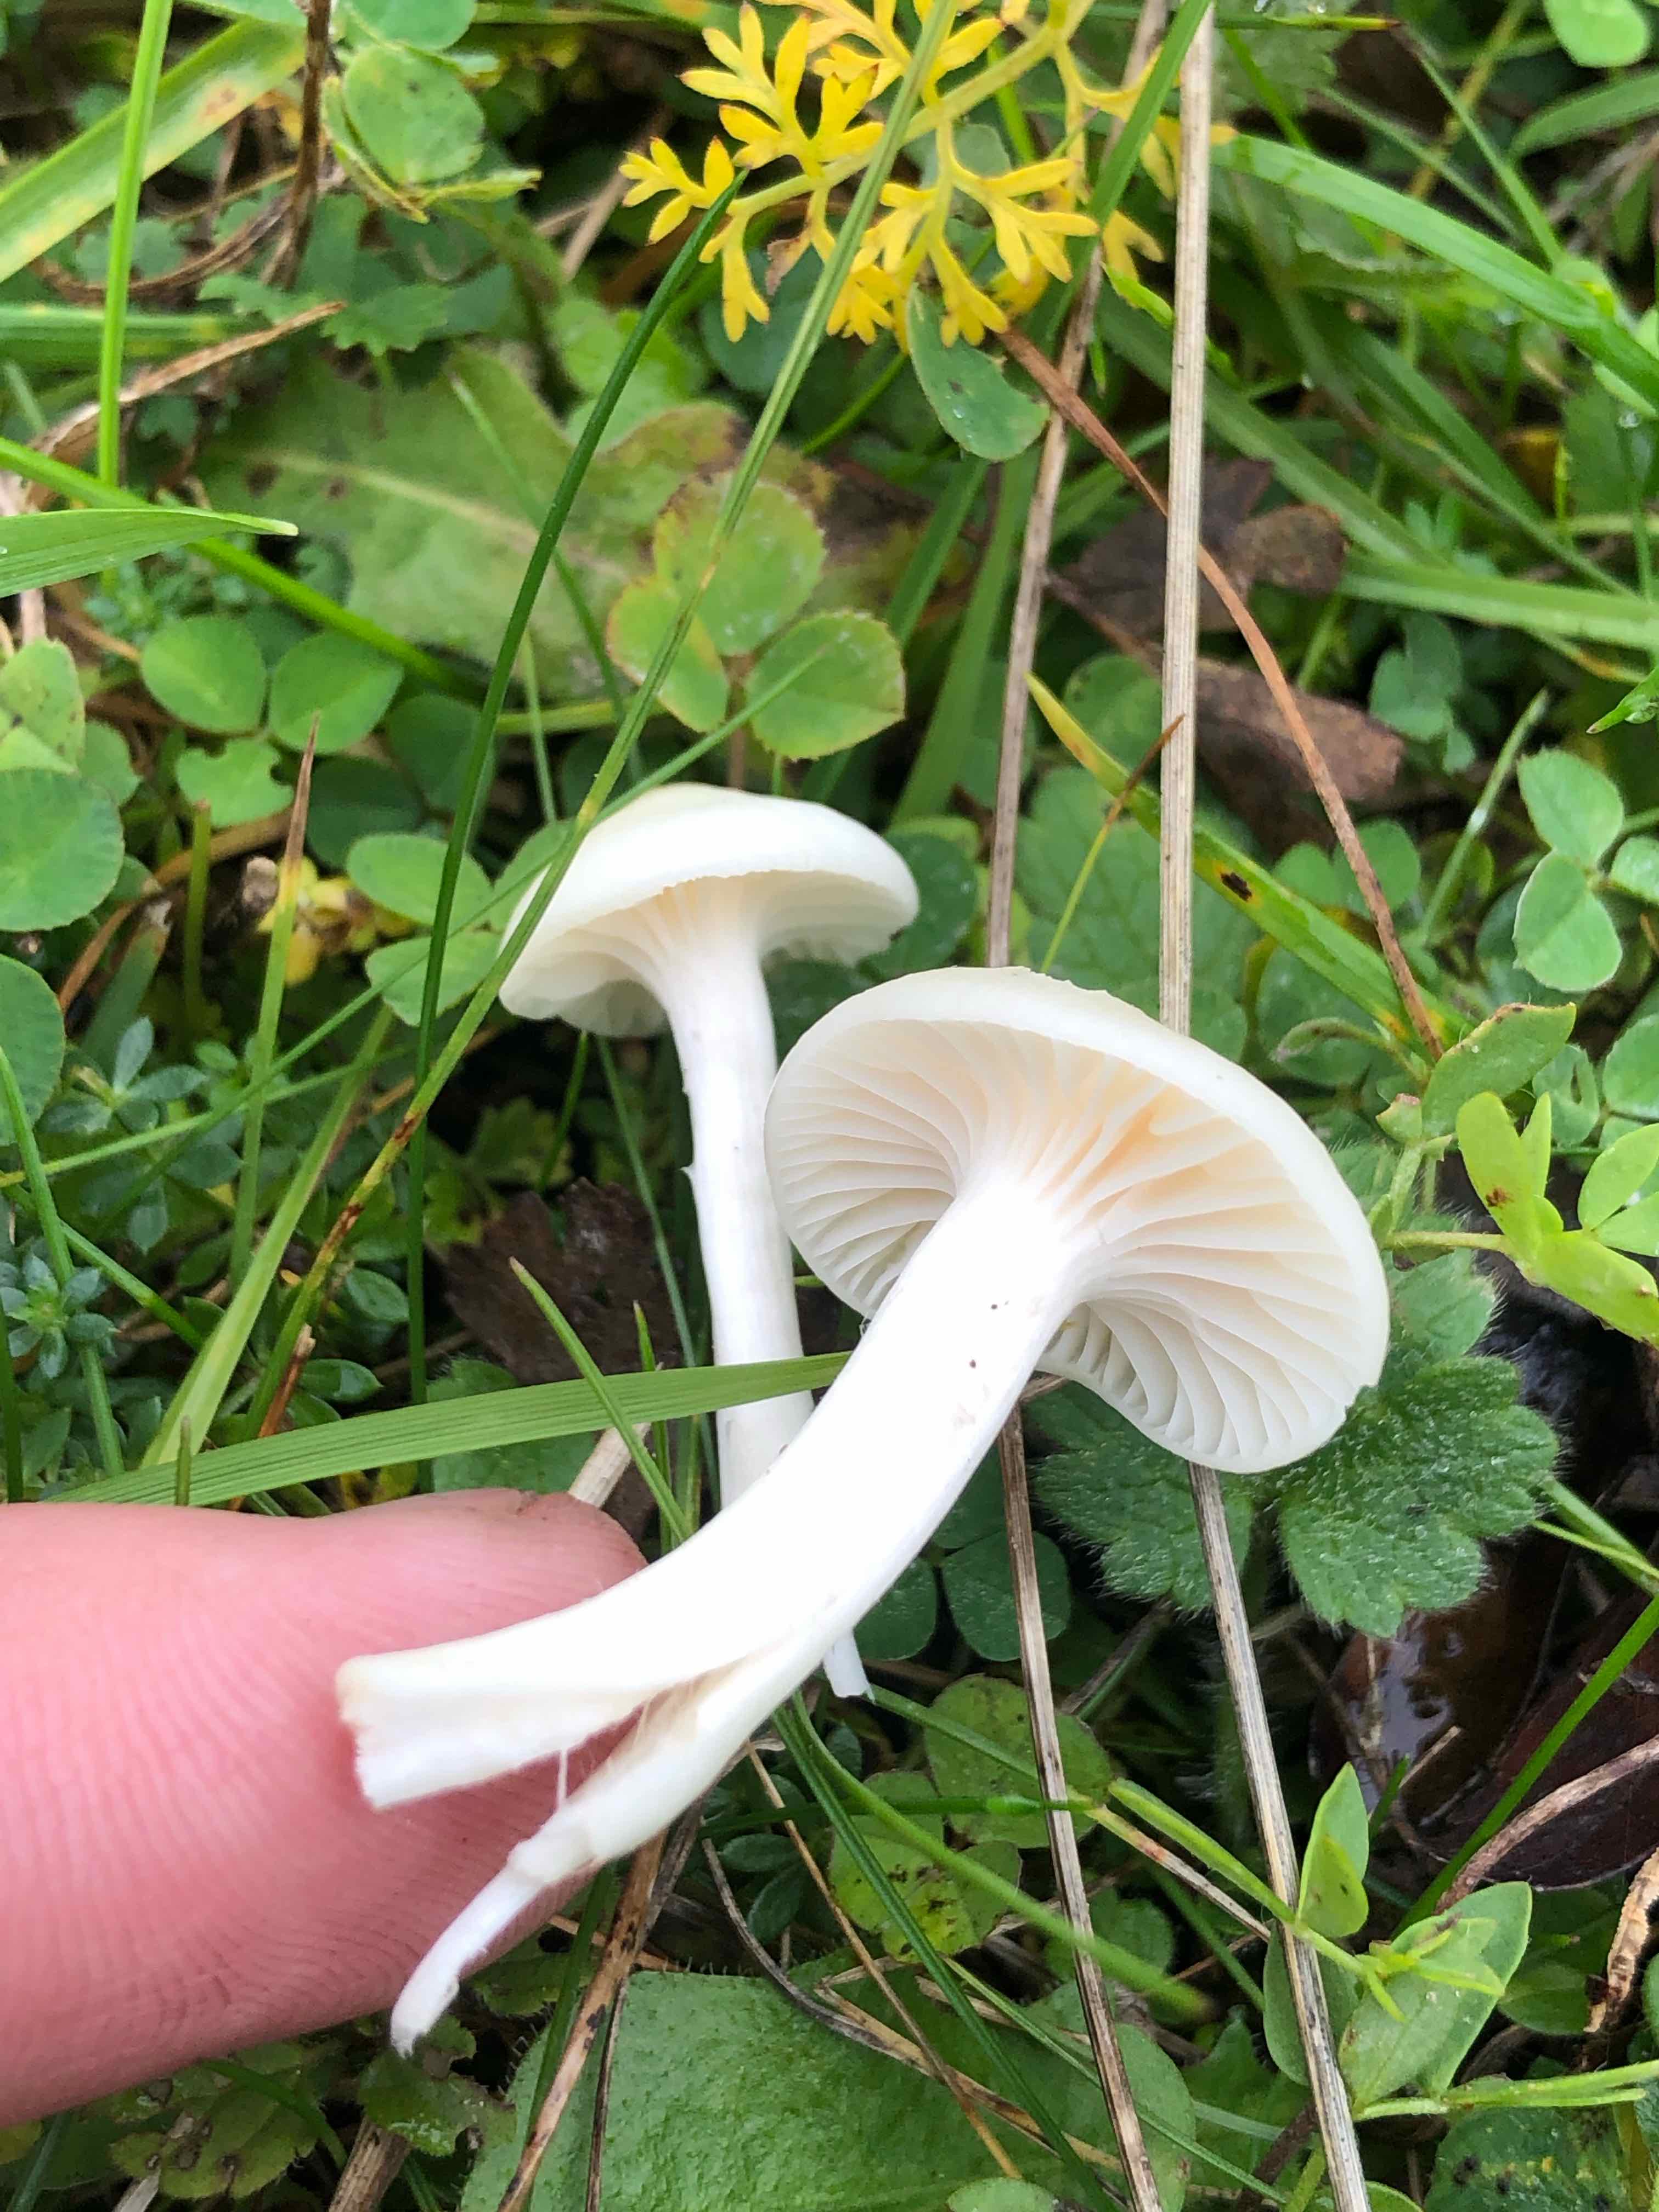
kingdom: Fungi
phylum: Basidiomycota
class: Agaricomycetes
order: Agaricales
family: Hygrophoraceae
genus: Cuphophyllus
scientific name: Cuphophyllus virgineus
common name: snehvid vokshat
